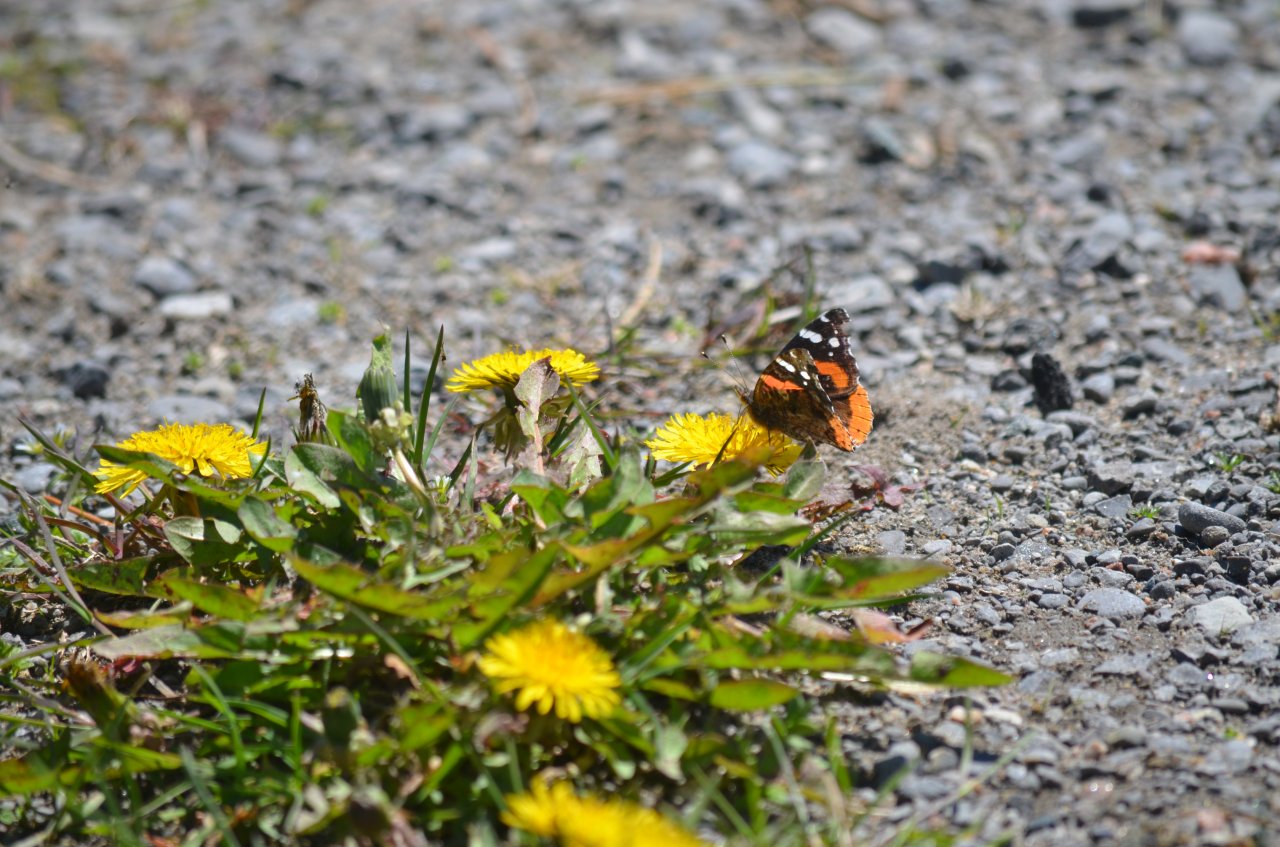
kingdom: Animalia
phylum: Arthropoda
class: Insecta
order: Lepidoptera
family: Nymphalidae
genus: Vanessa
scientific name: Vanessa atalanta
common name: Red Admiral
